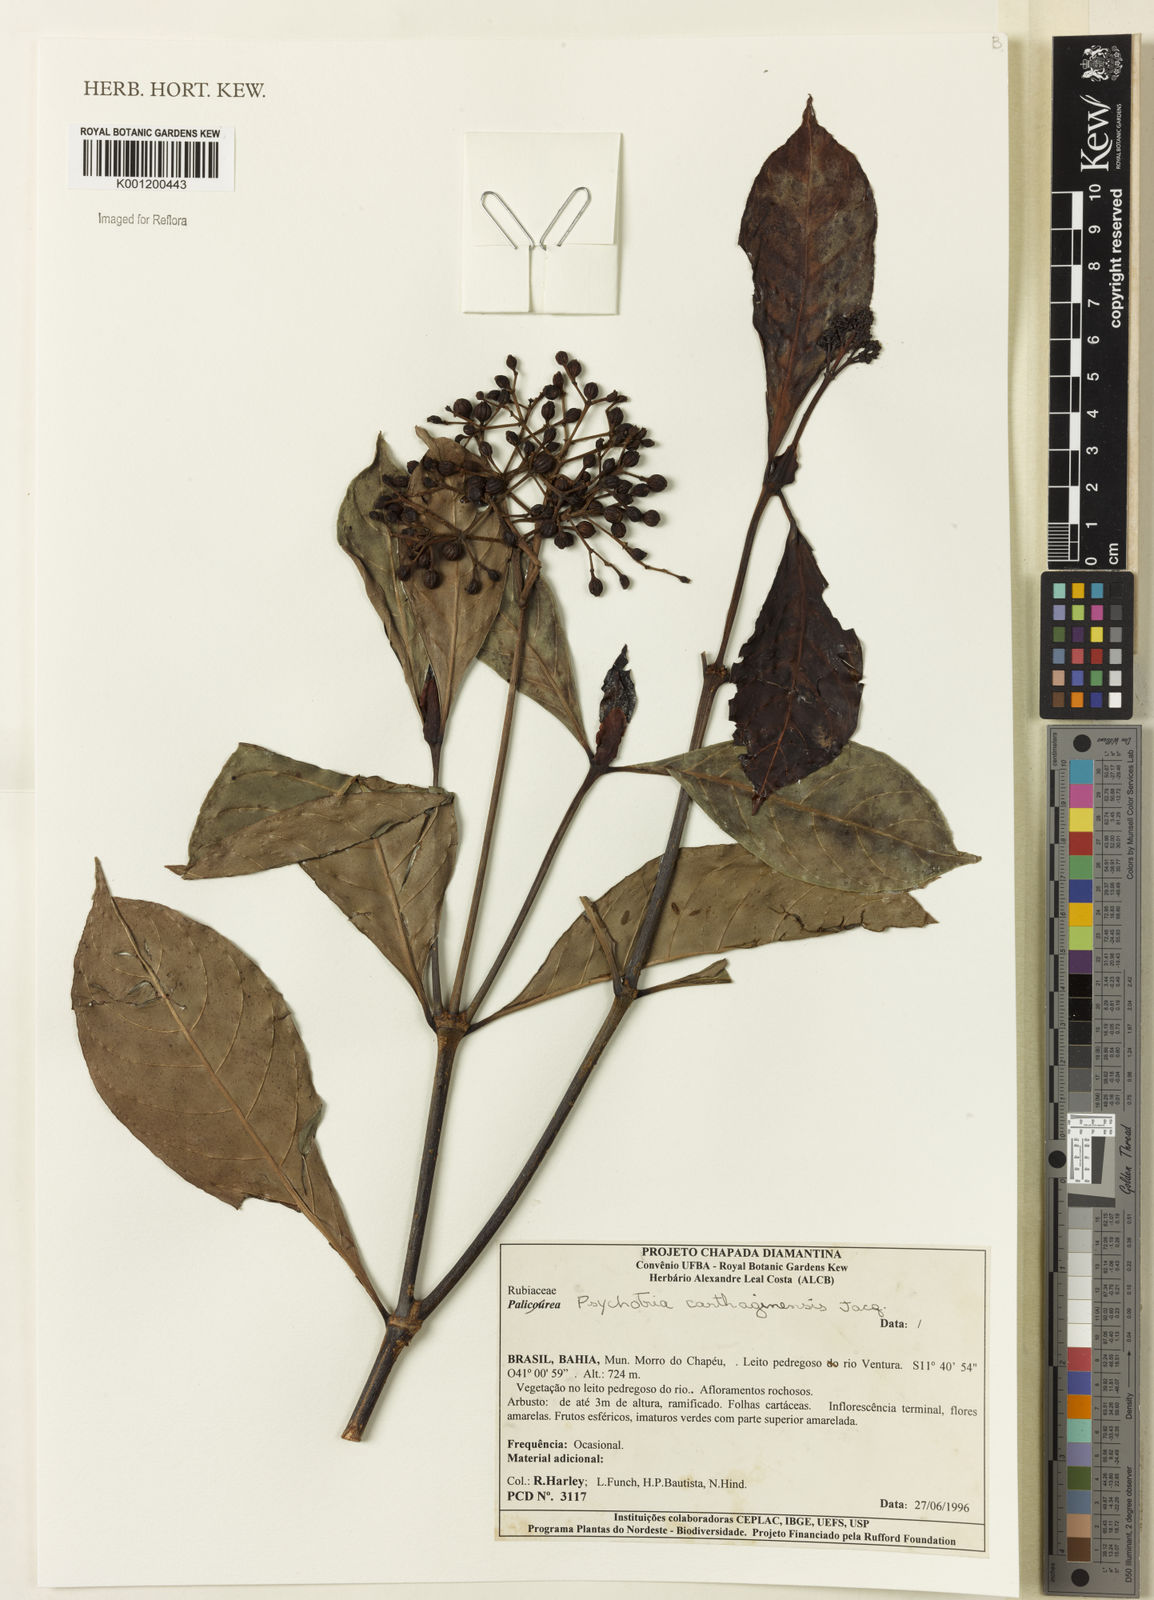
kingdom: Plantae
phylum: Tracheophyta
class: Magnoliopsida
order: Gentianales
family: Rubiaceae
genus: Psychotria
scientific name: Psychotria carthagenensis
